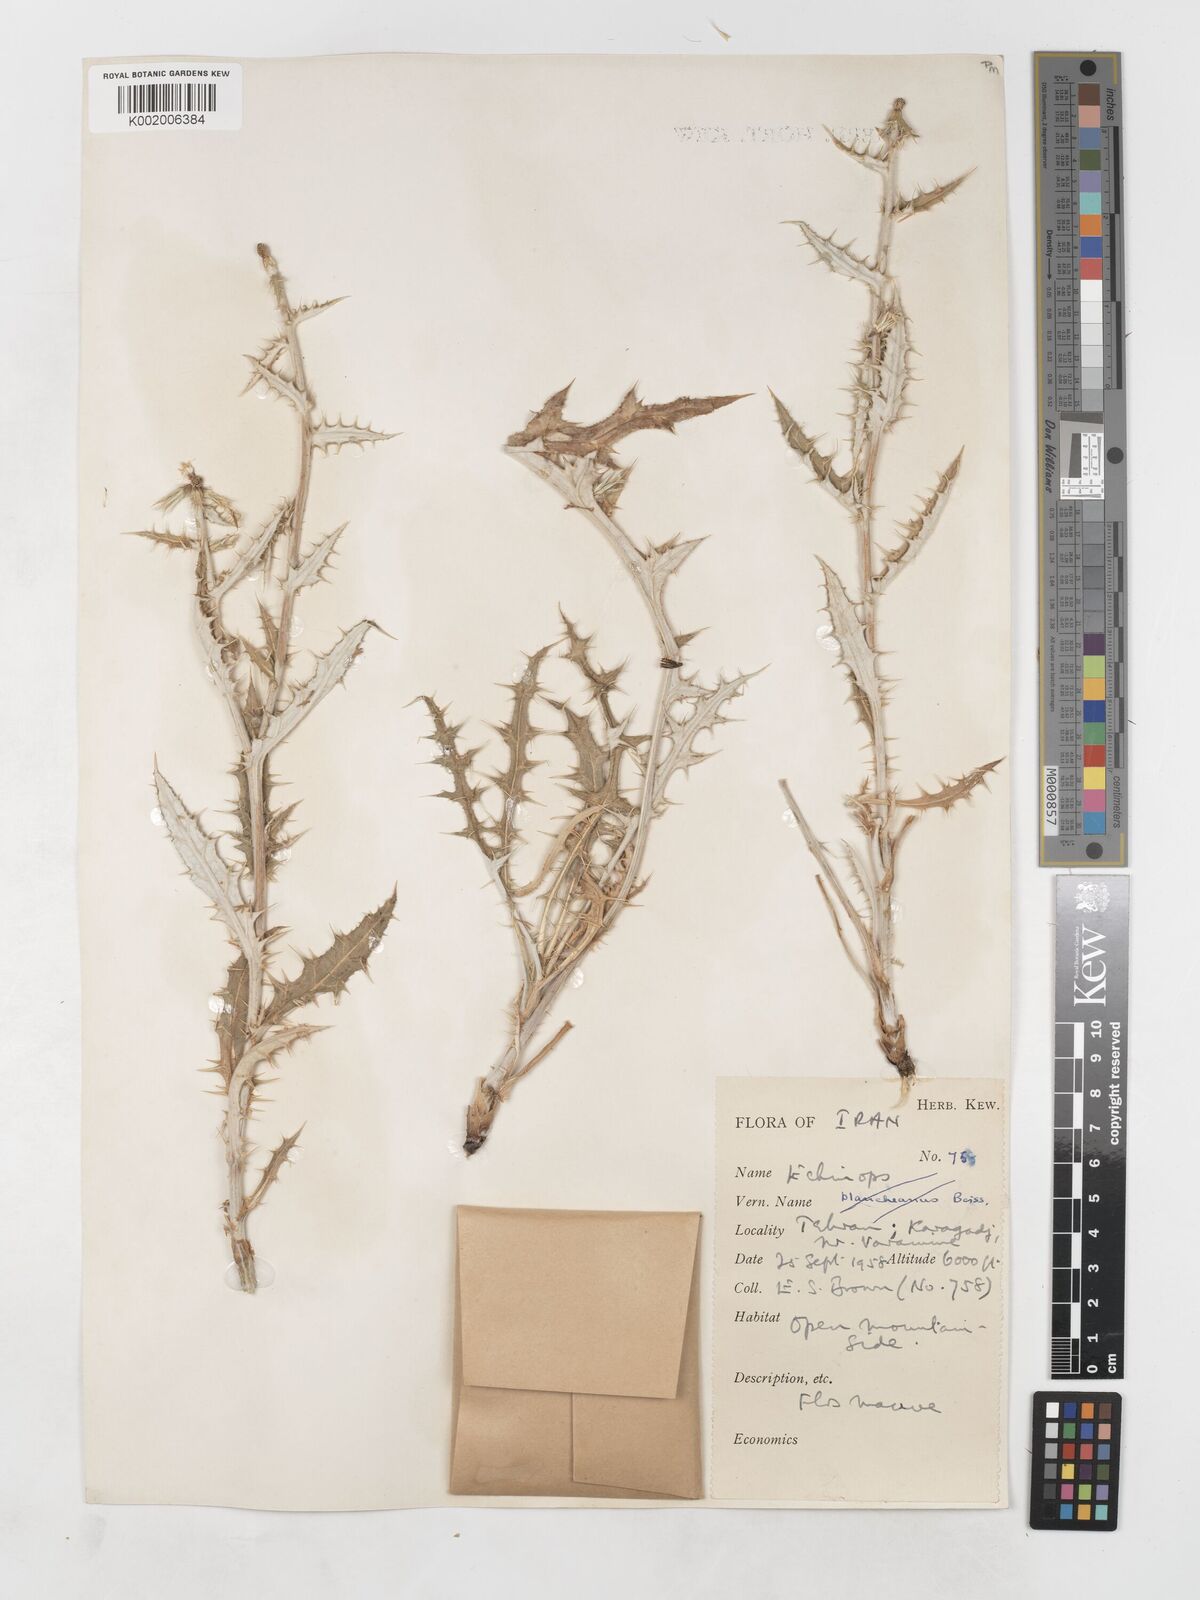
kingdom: Plantae
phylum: Tracheophyta
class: Magnoliopsida
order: Asterales
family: Asteraceae
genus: Echinops
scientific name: Echinops ritrodes
